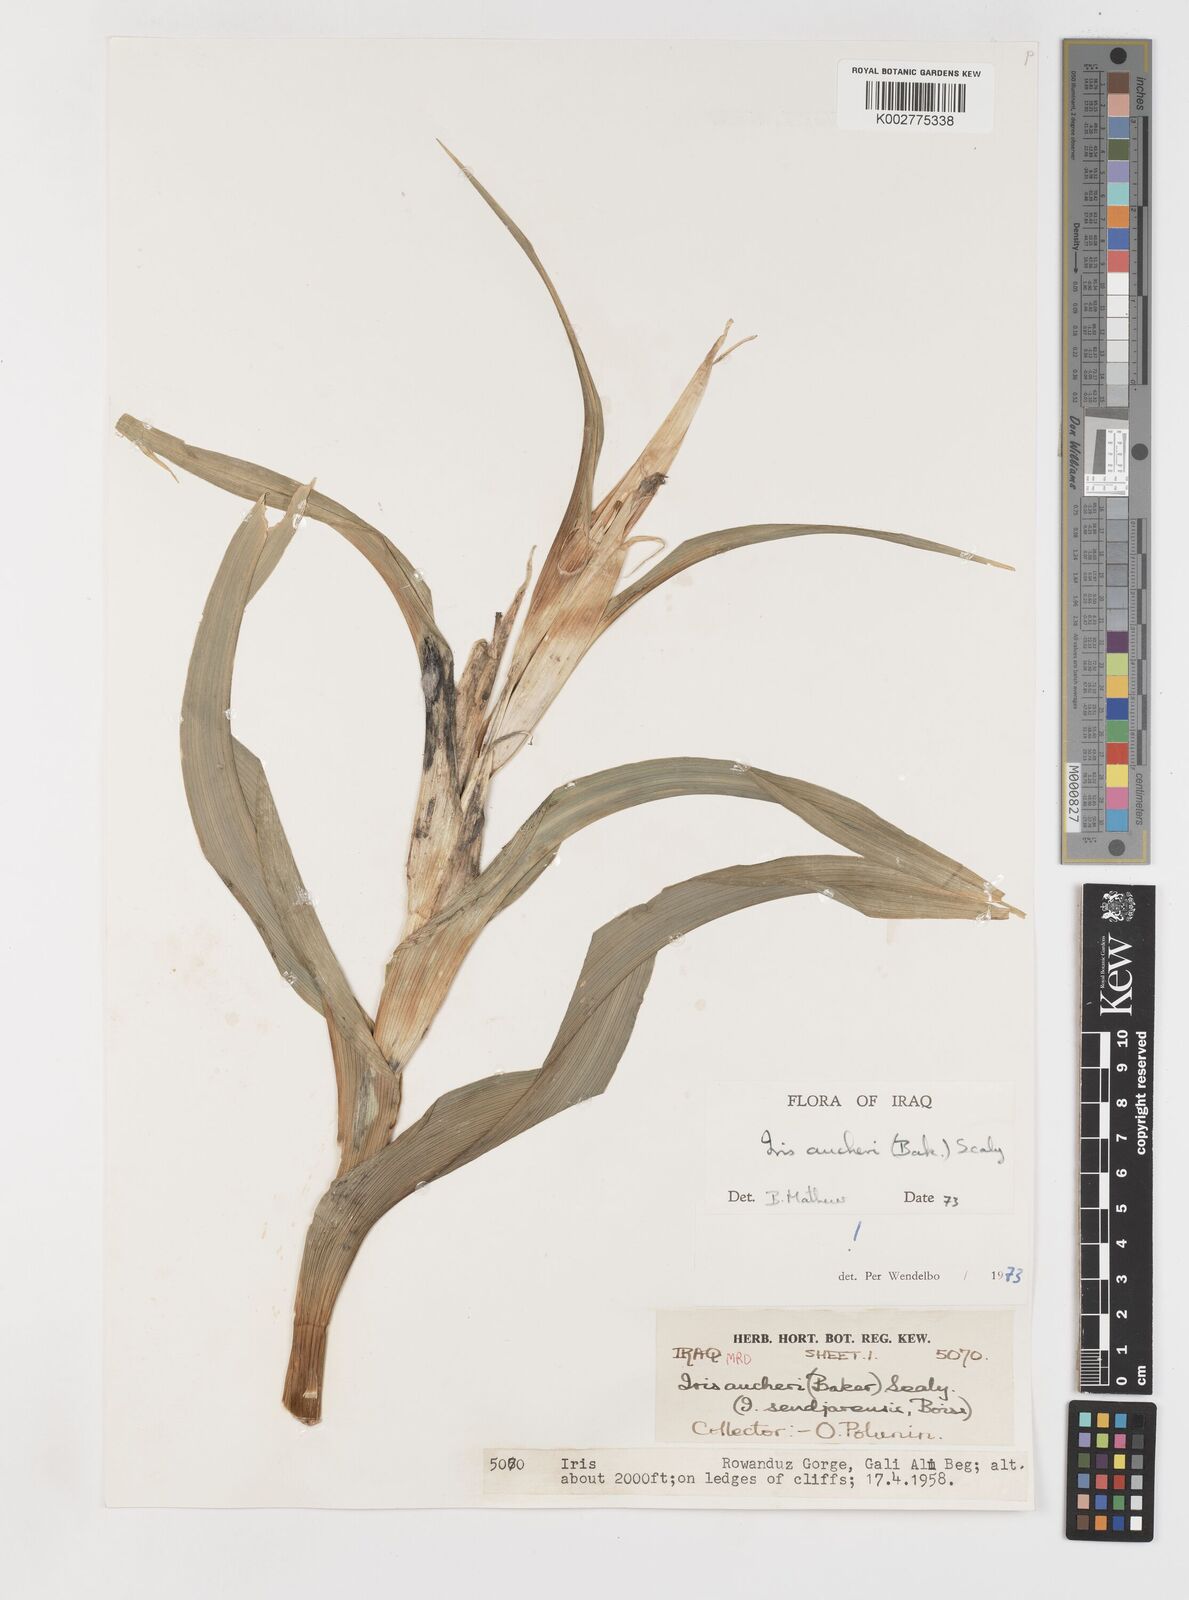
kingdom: Plantae
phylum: Tracheophyta
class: Liliopsida
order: Asparagales
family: Iridaceae
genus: Iris
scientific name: Iris aucheri
